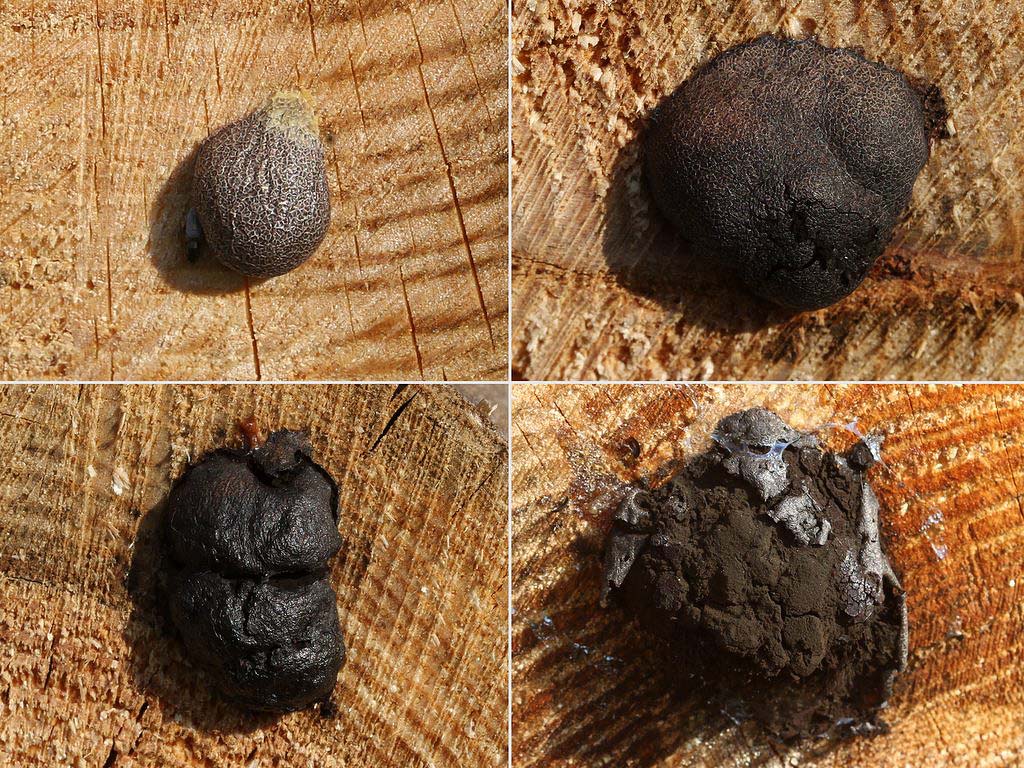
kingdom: Protozoa
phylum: Mycetozoa
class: Myxomycetes
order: Stemonitidales
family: Stemonitidaceae
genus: Amaurochaete
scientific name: Amaurochaete atra
